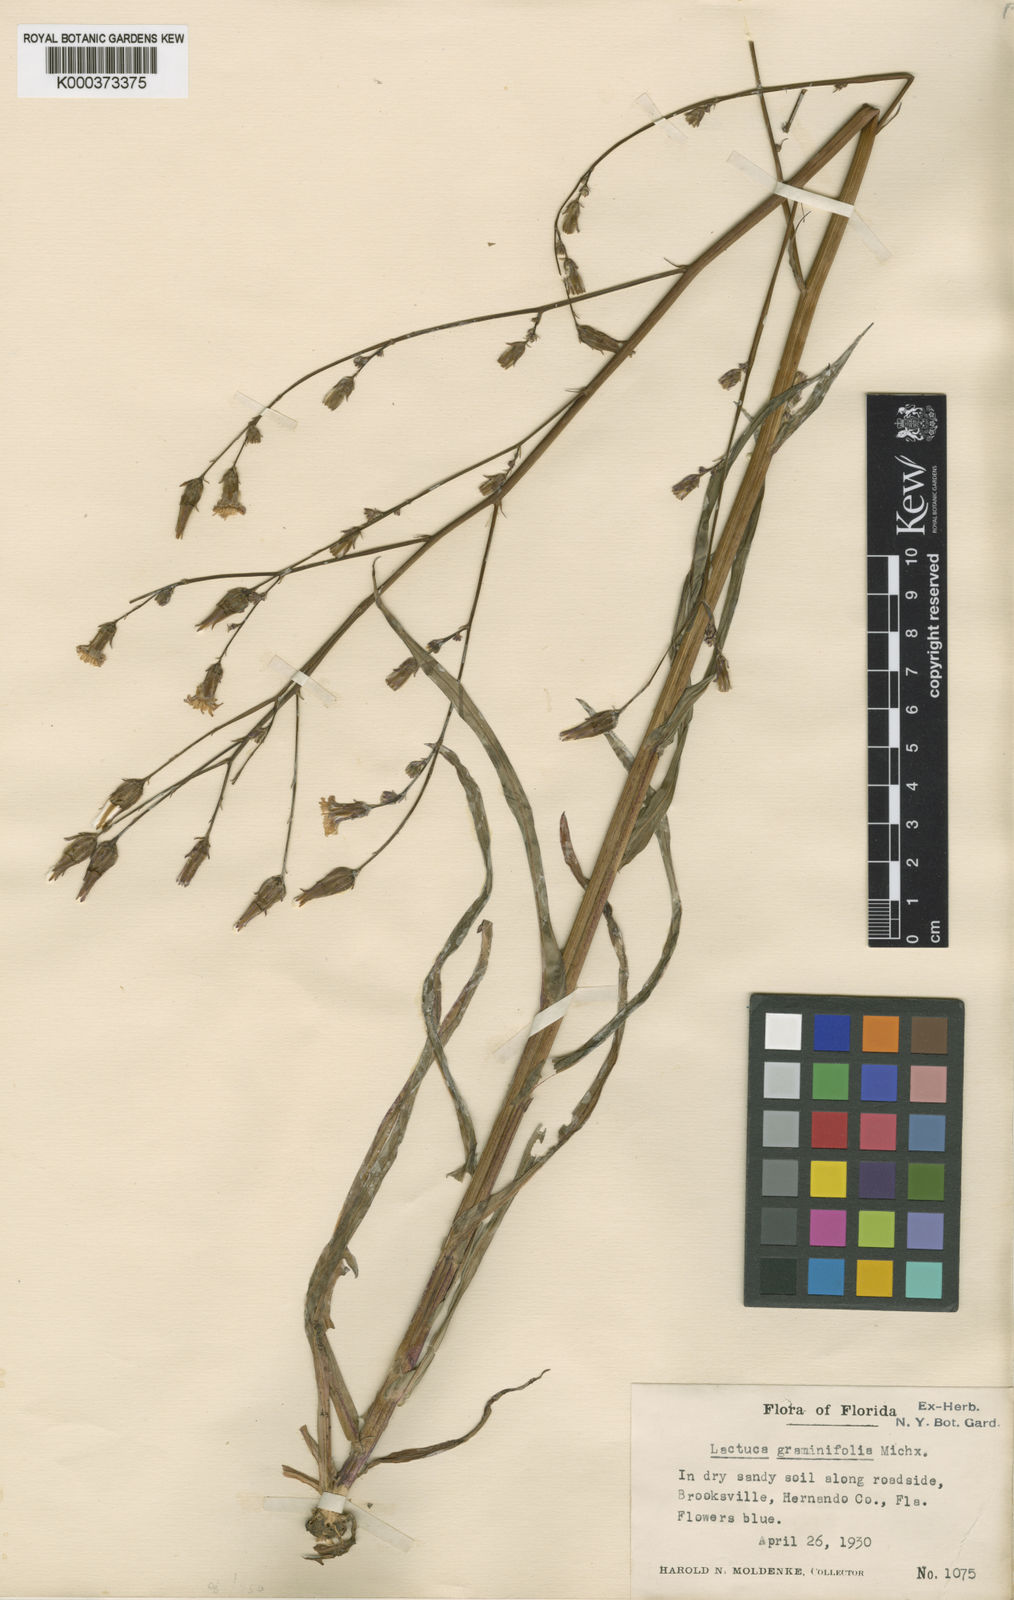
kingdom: Plantae
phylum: Tracheophyta
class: Magnoliopsida
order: Asterales
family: Asteraceae
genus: Lactuca
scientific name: Lactuca graminifolia
